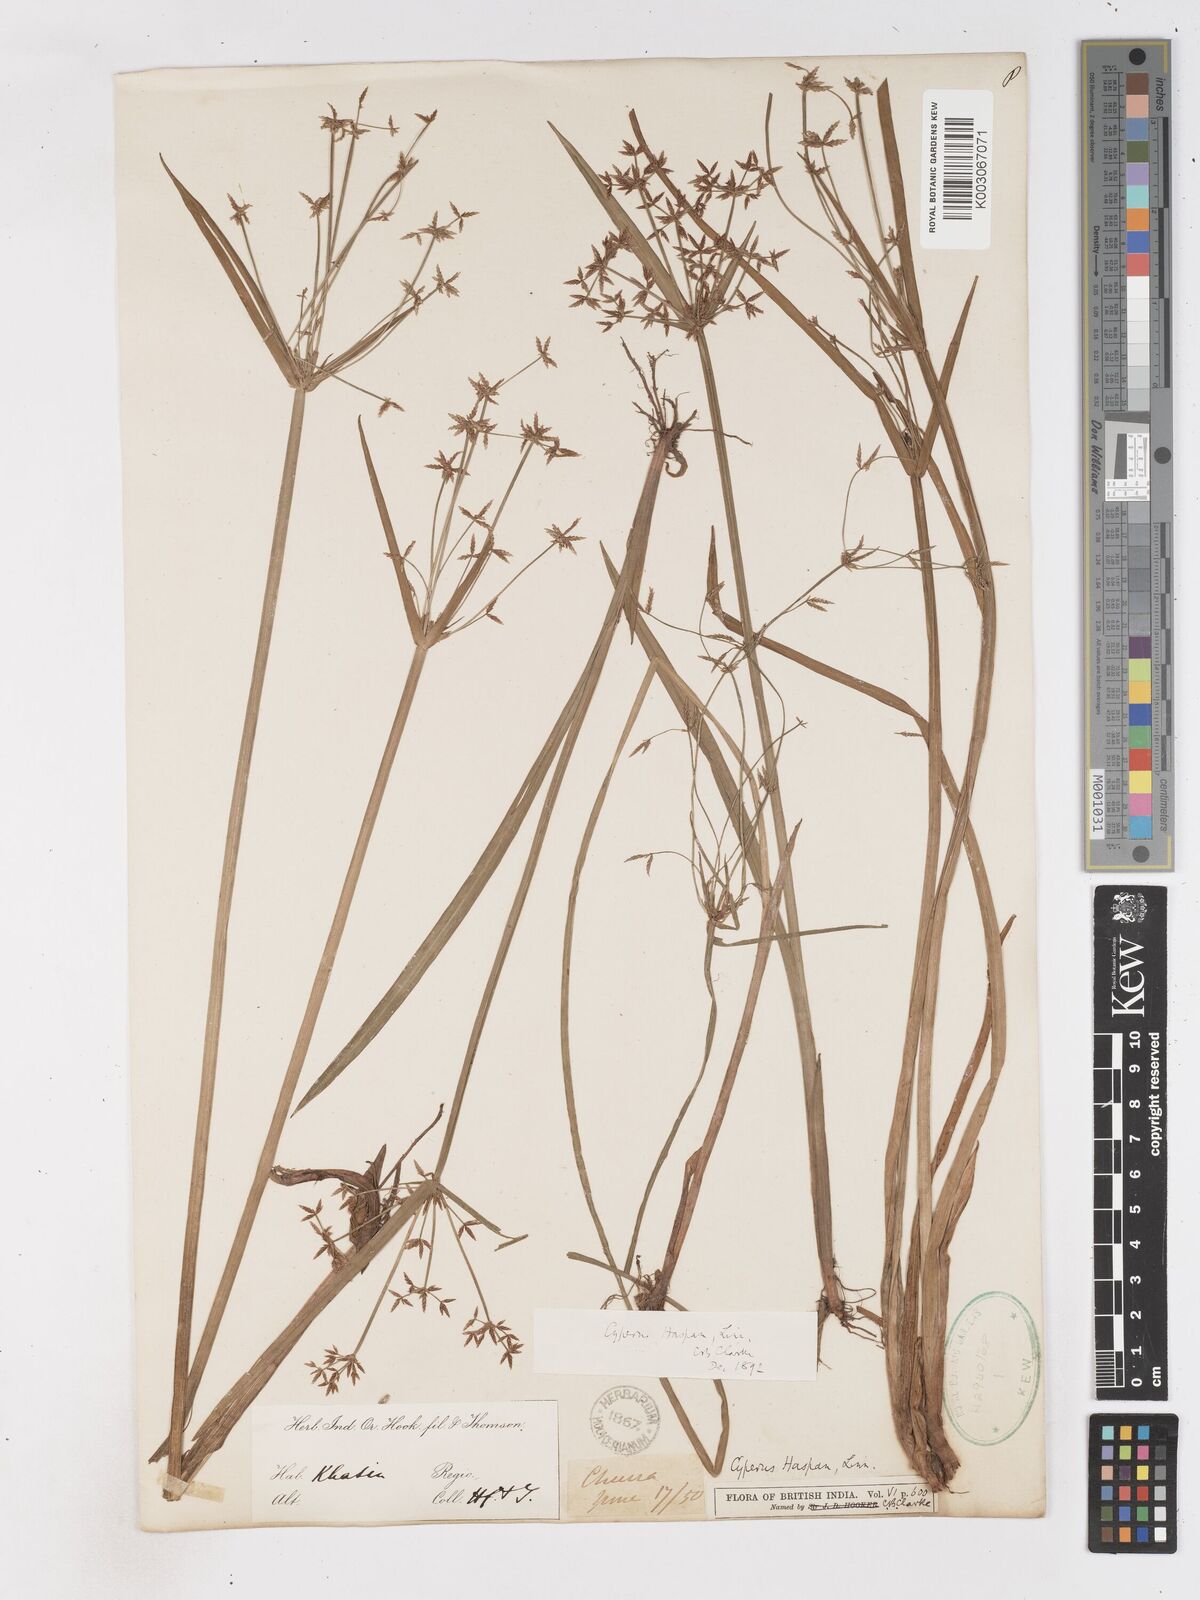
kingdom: Plantae
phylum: Tracheophyta
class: Liliopsida
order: Poales
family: Cyperaceae
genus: Cyperus
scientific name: Cyperus haspan
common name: Haspan flatsedge
